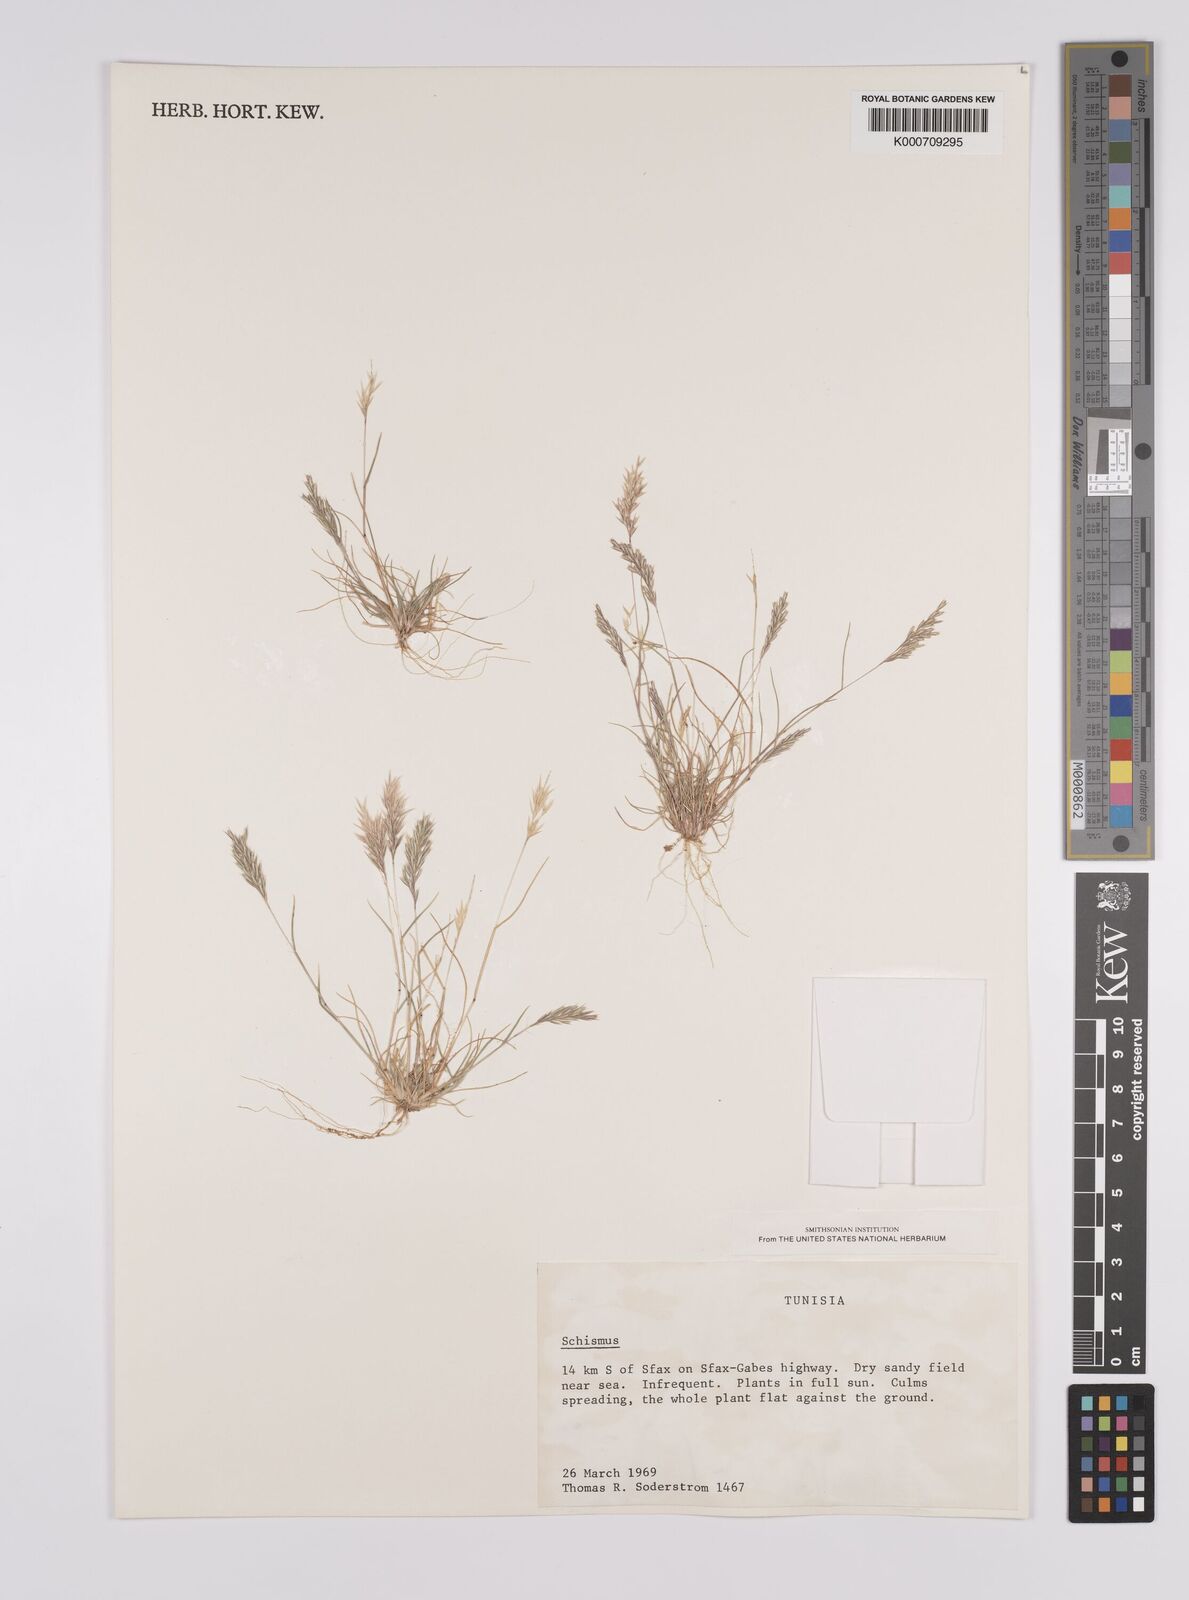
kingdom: Plantae
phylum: Tracheophyta
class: Liliopsida
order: Poales
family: Poaceae
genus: Schismus
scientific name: Schismus barbatus
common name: Kelch-grass
